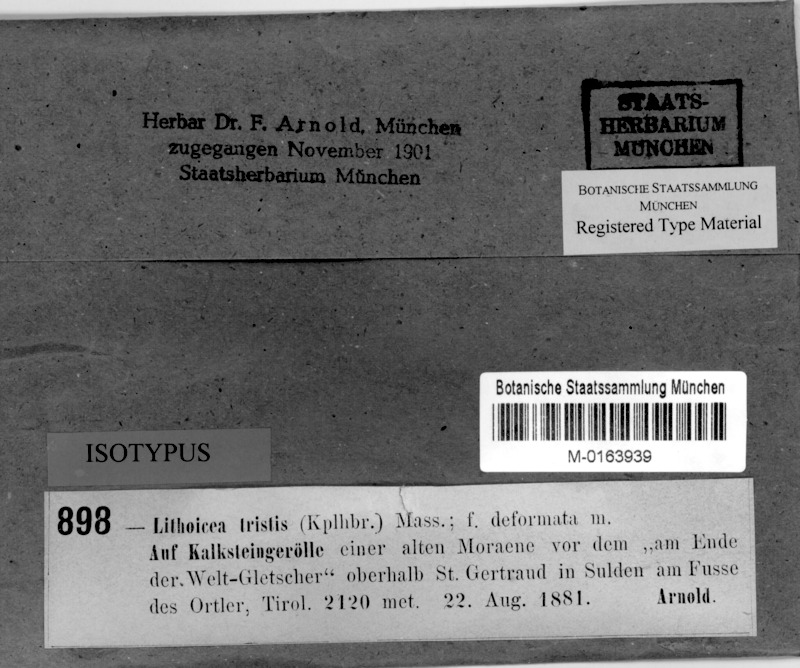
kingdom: Fungi
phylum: Ascomycota
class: Eurotiomycetes
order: Verrucariales
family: Verrucariaceae
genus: Verrucaria
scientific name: Verrucaria Lithocia tristis
